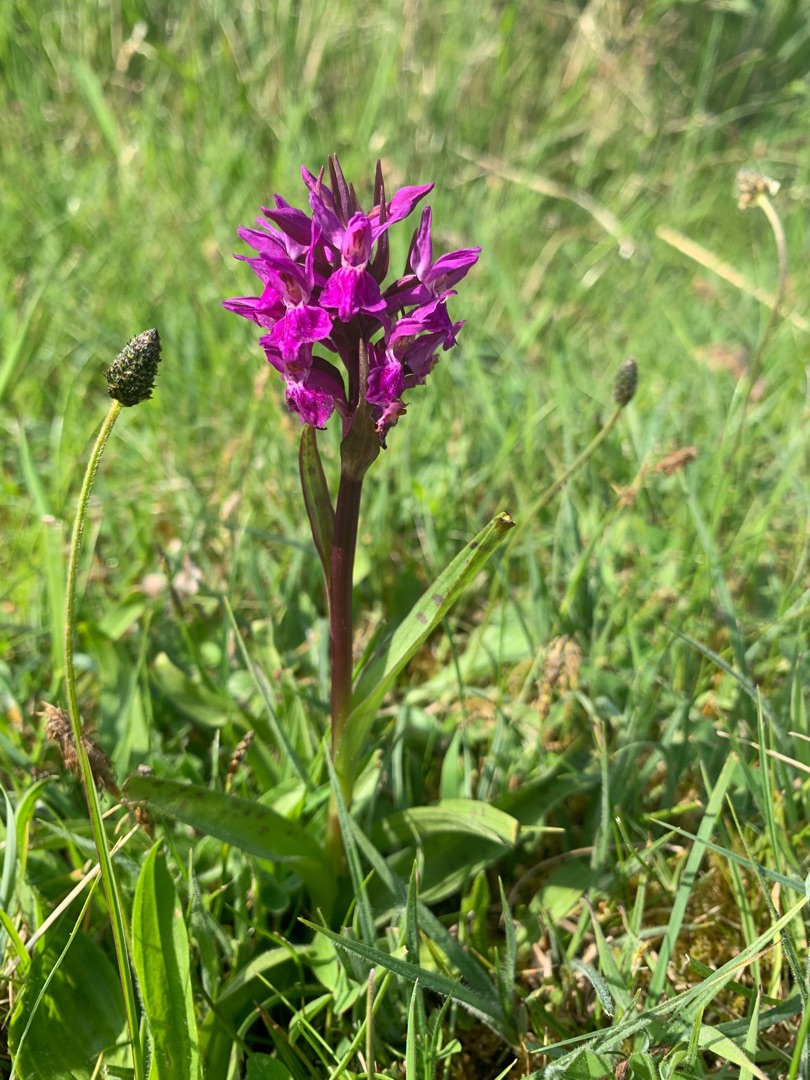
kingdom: Plantae
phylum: Tracheophyta
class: Liliopsida
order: Asparagales
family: Orchidaceae
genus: Dactylorhiza
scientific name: Dactylorhiza majalis
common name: Maj-gøgeurt
